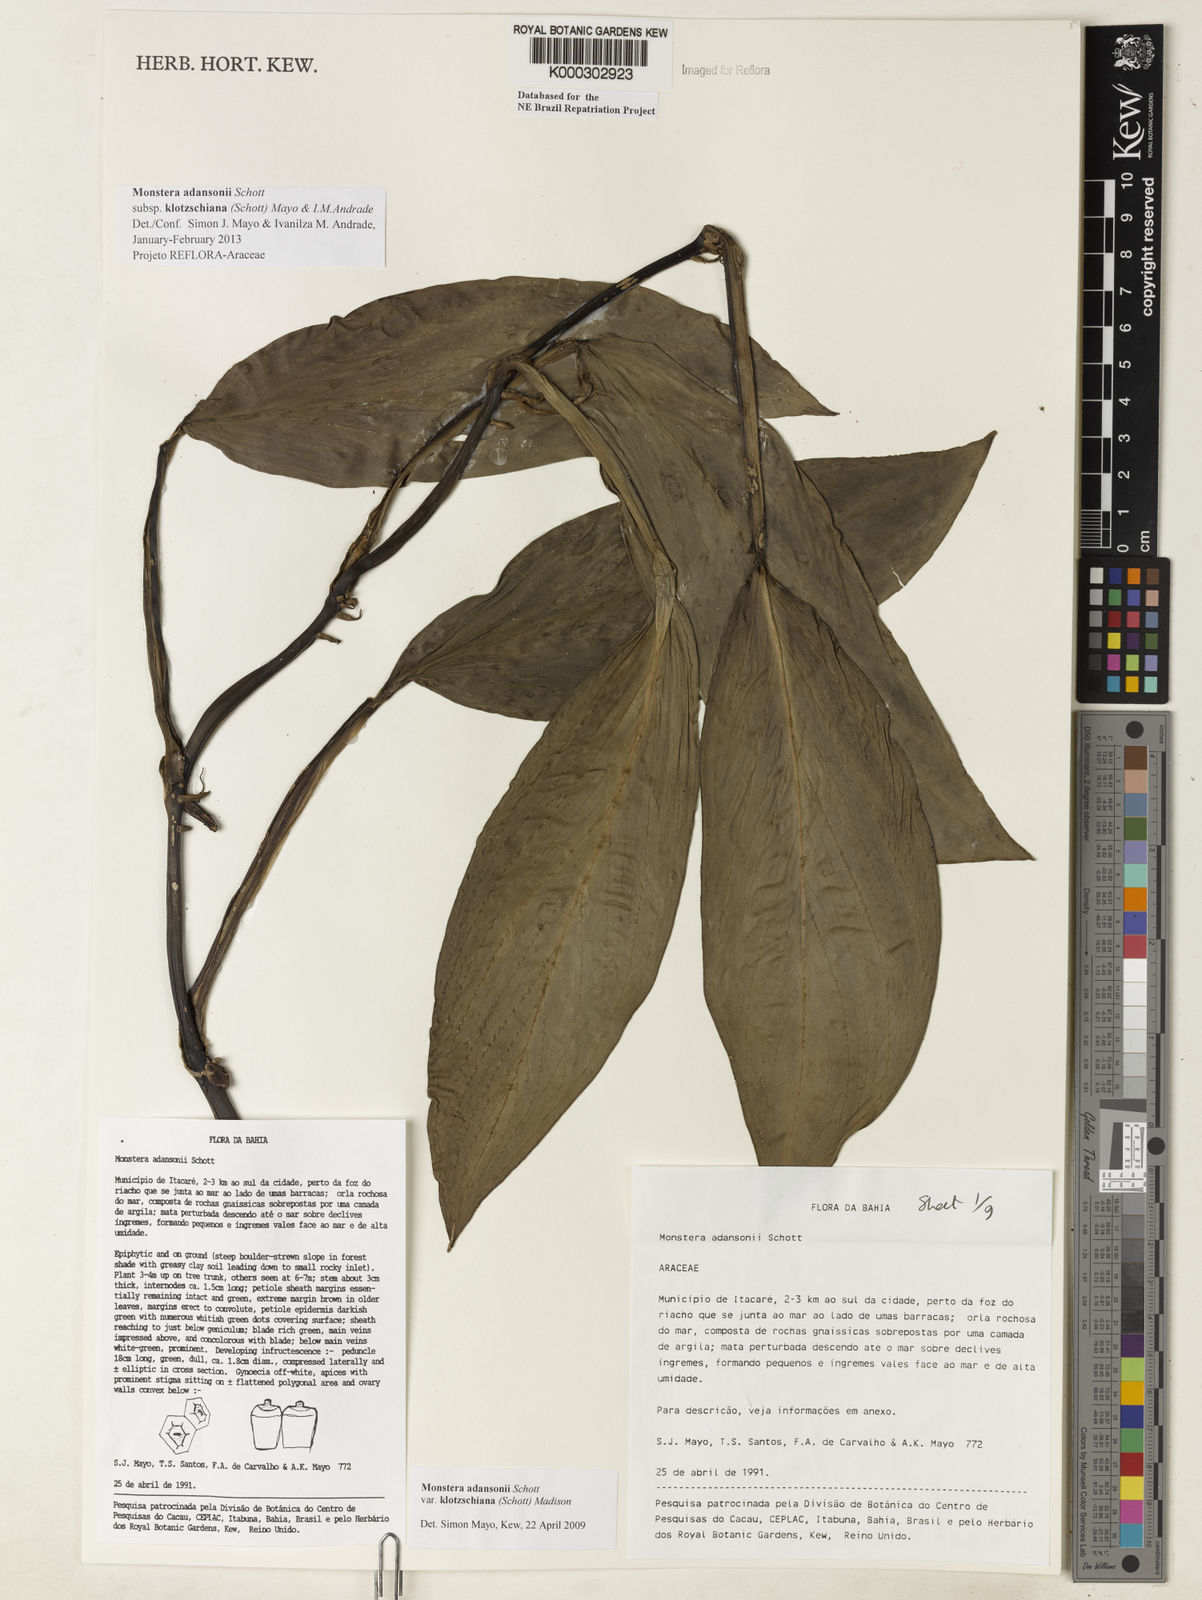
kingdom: Plantae
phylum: Tracheophyta
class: Liliopsida
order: Alismatales
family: Araceae
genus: Monstera
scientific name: Monstera adansonii
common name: Tarovine
